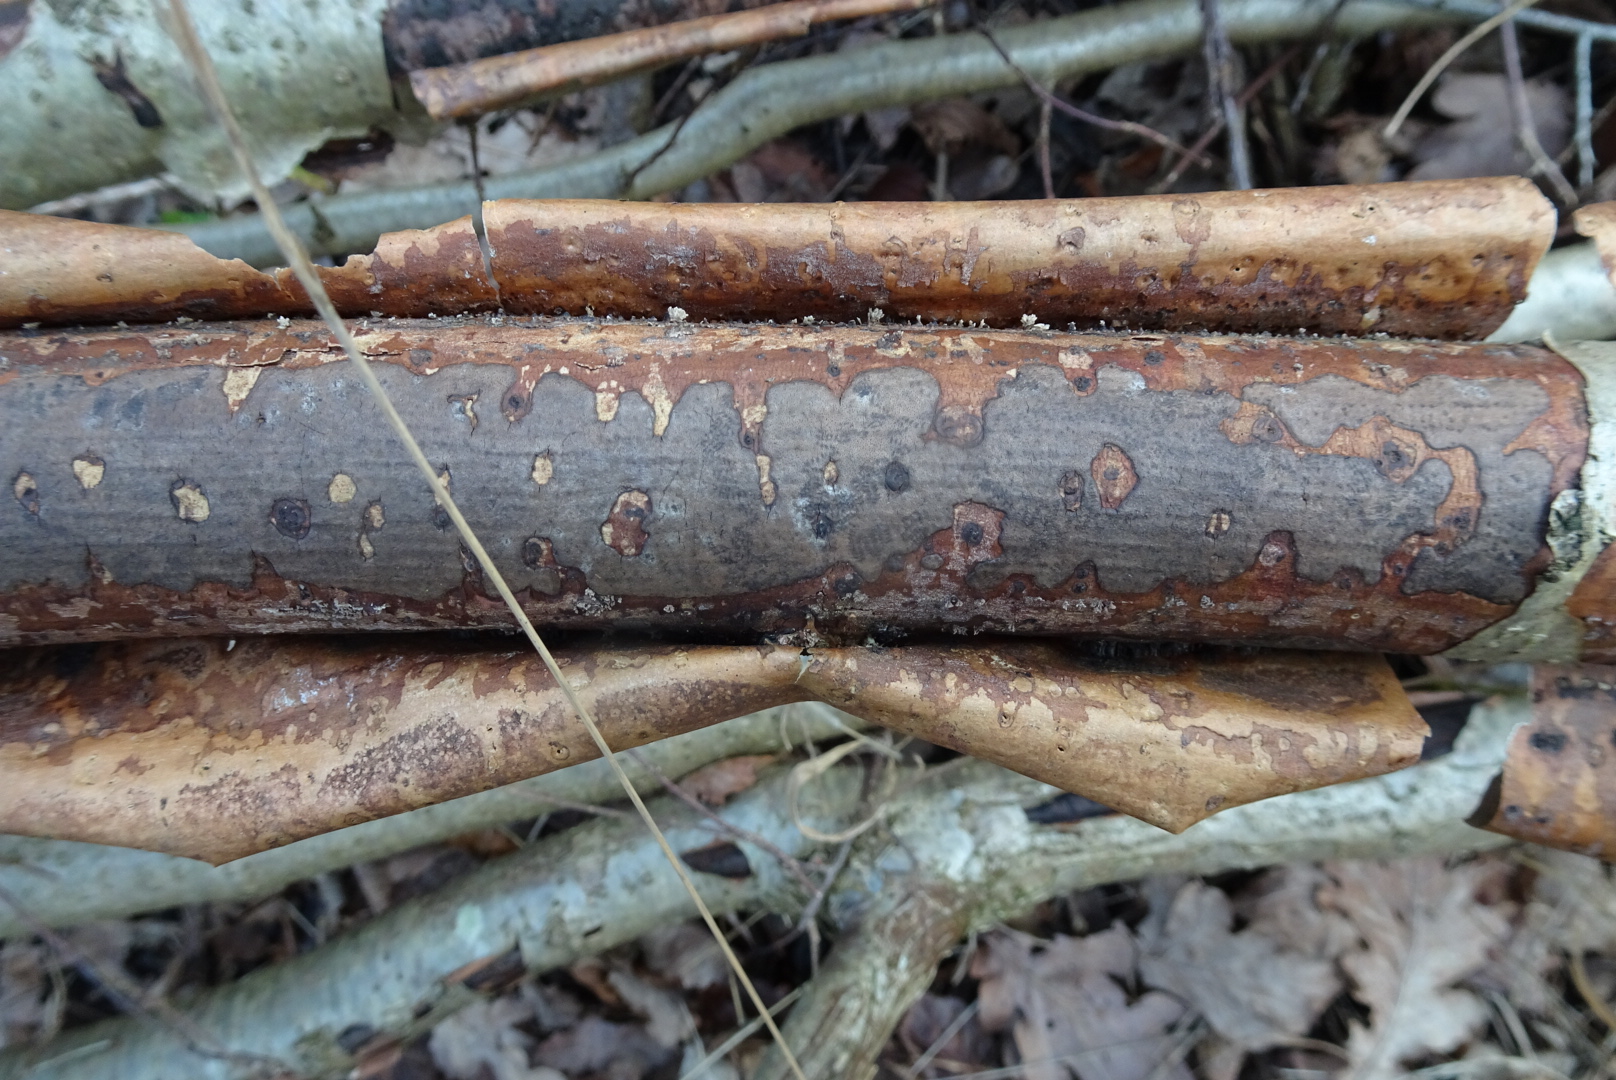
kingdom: Fungi
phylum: Ascomycota
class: Sordariomycetes
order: Xylariales
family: Diatrypaceae
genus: Diatrype
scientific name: Diatrype
